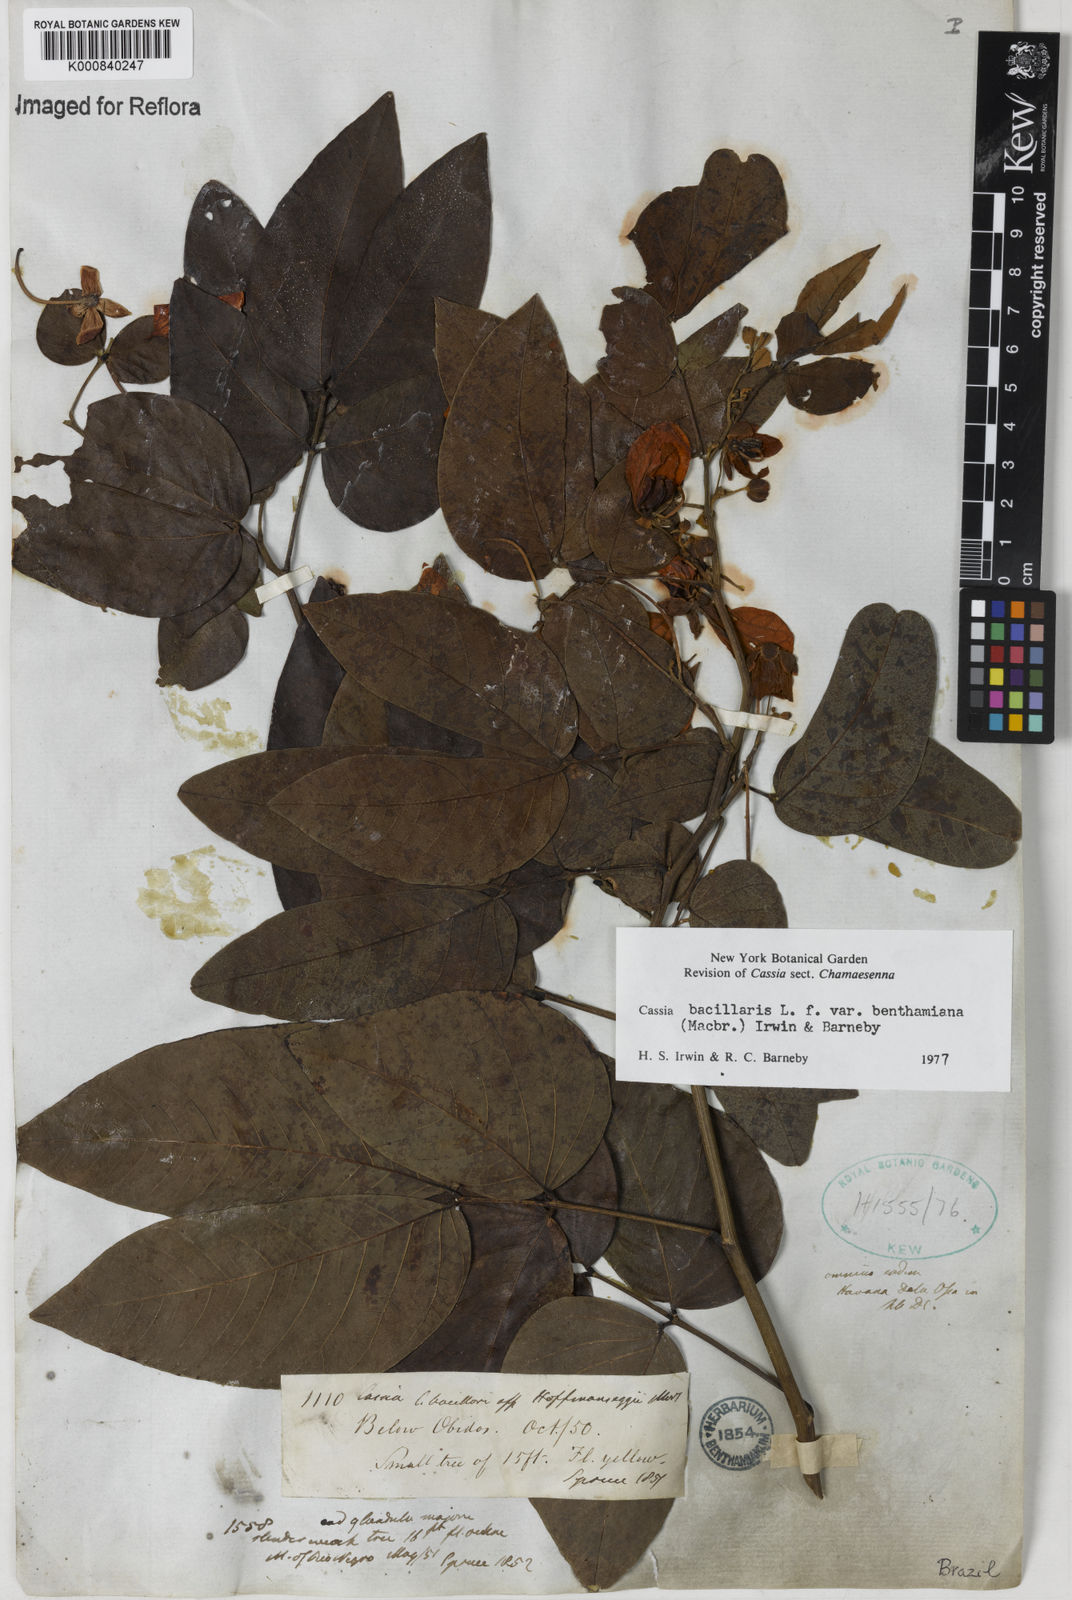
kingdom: Plantae
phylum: Tracheophyta
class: Magnoliopsida
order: Fabales
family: Fabaceae
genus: Senna
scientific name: Senna bacillaris
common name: West indian showertree
